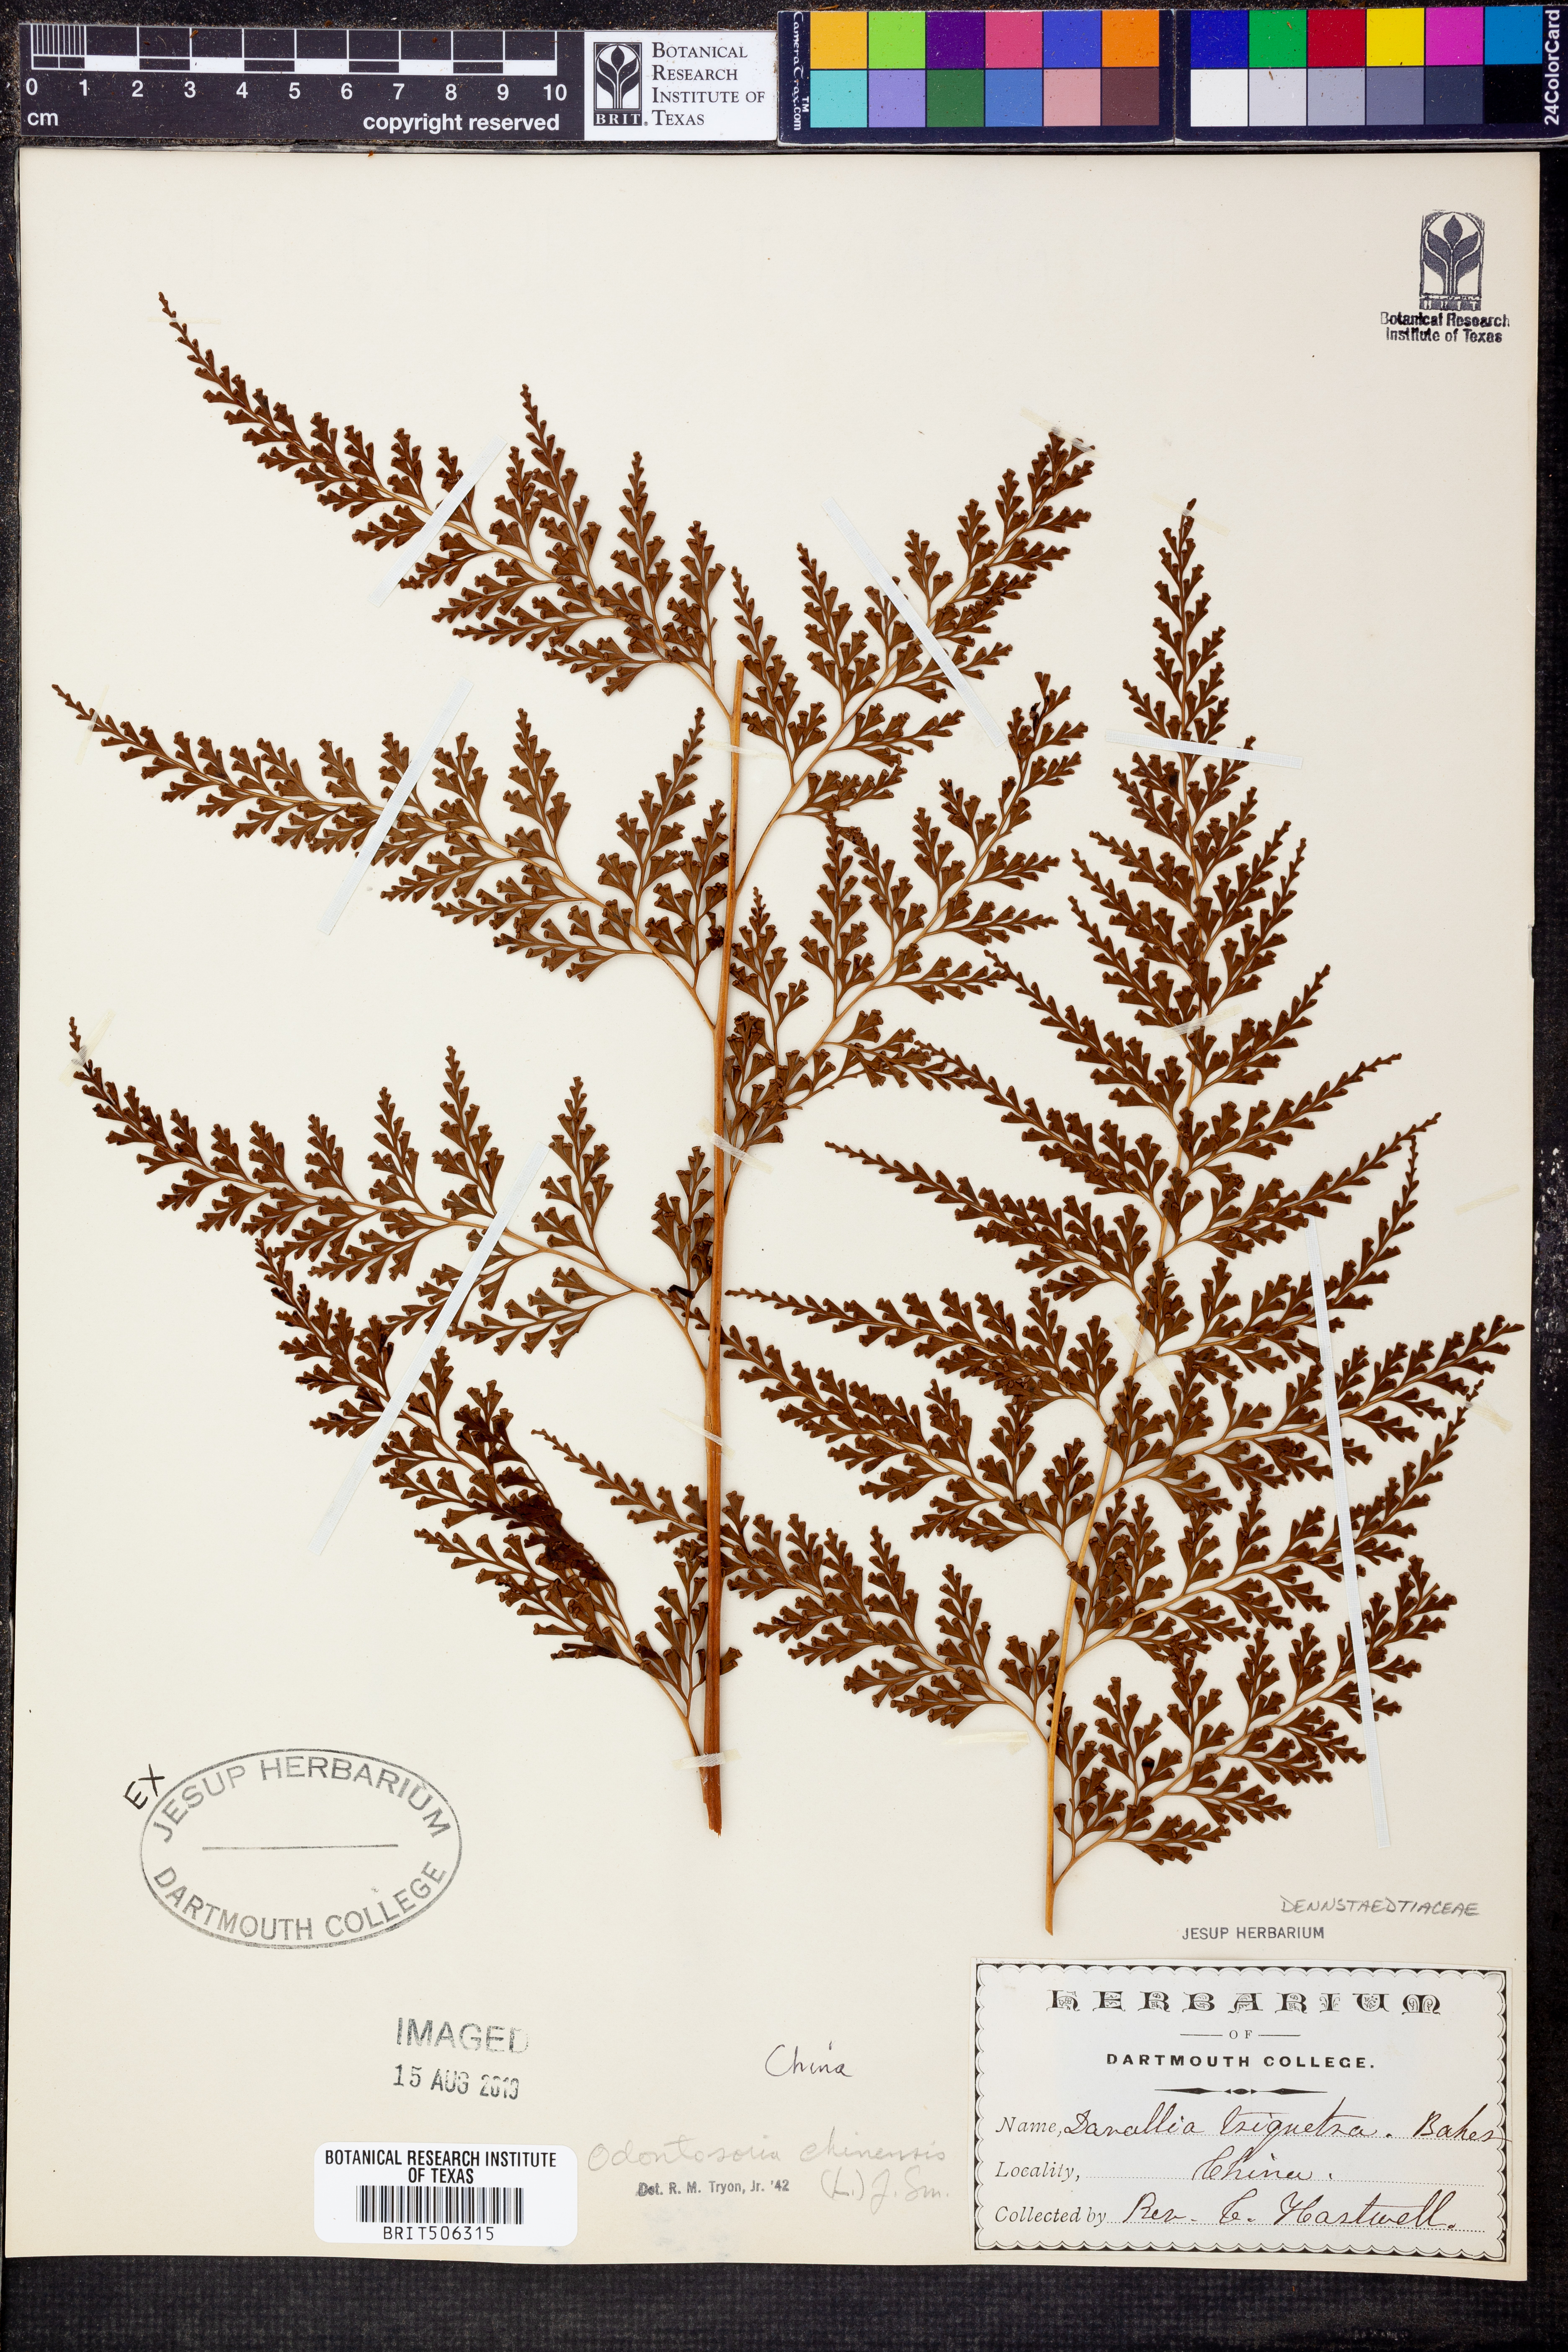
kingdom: Plantae
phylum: Tracheophyta
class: Polypodiopsida
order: Polypodiales
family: Lindsaeaceae
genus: Odontosoria
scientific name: Odontosoria chinensis
